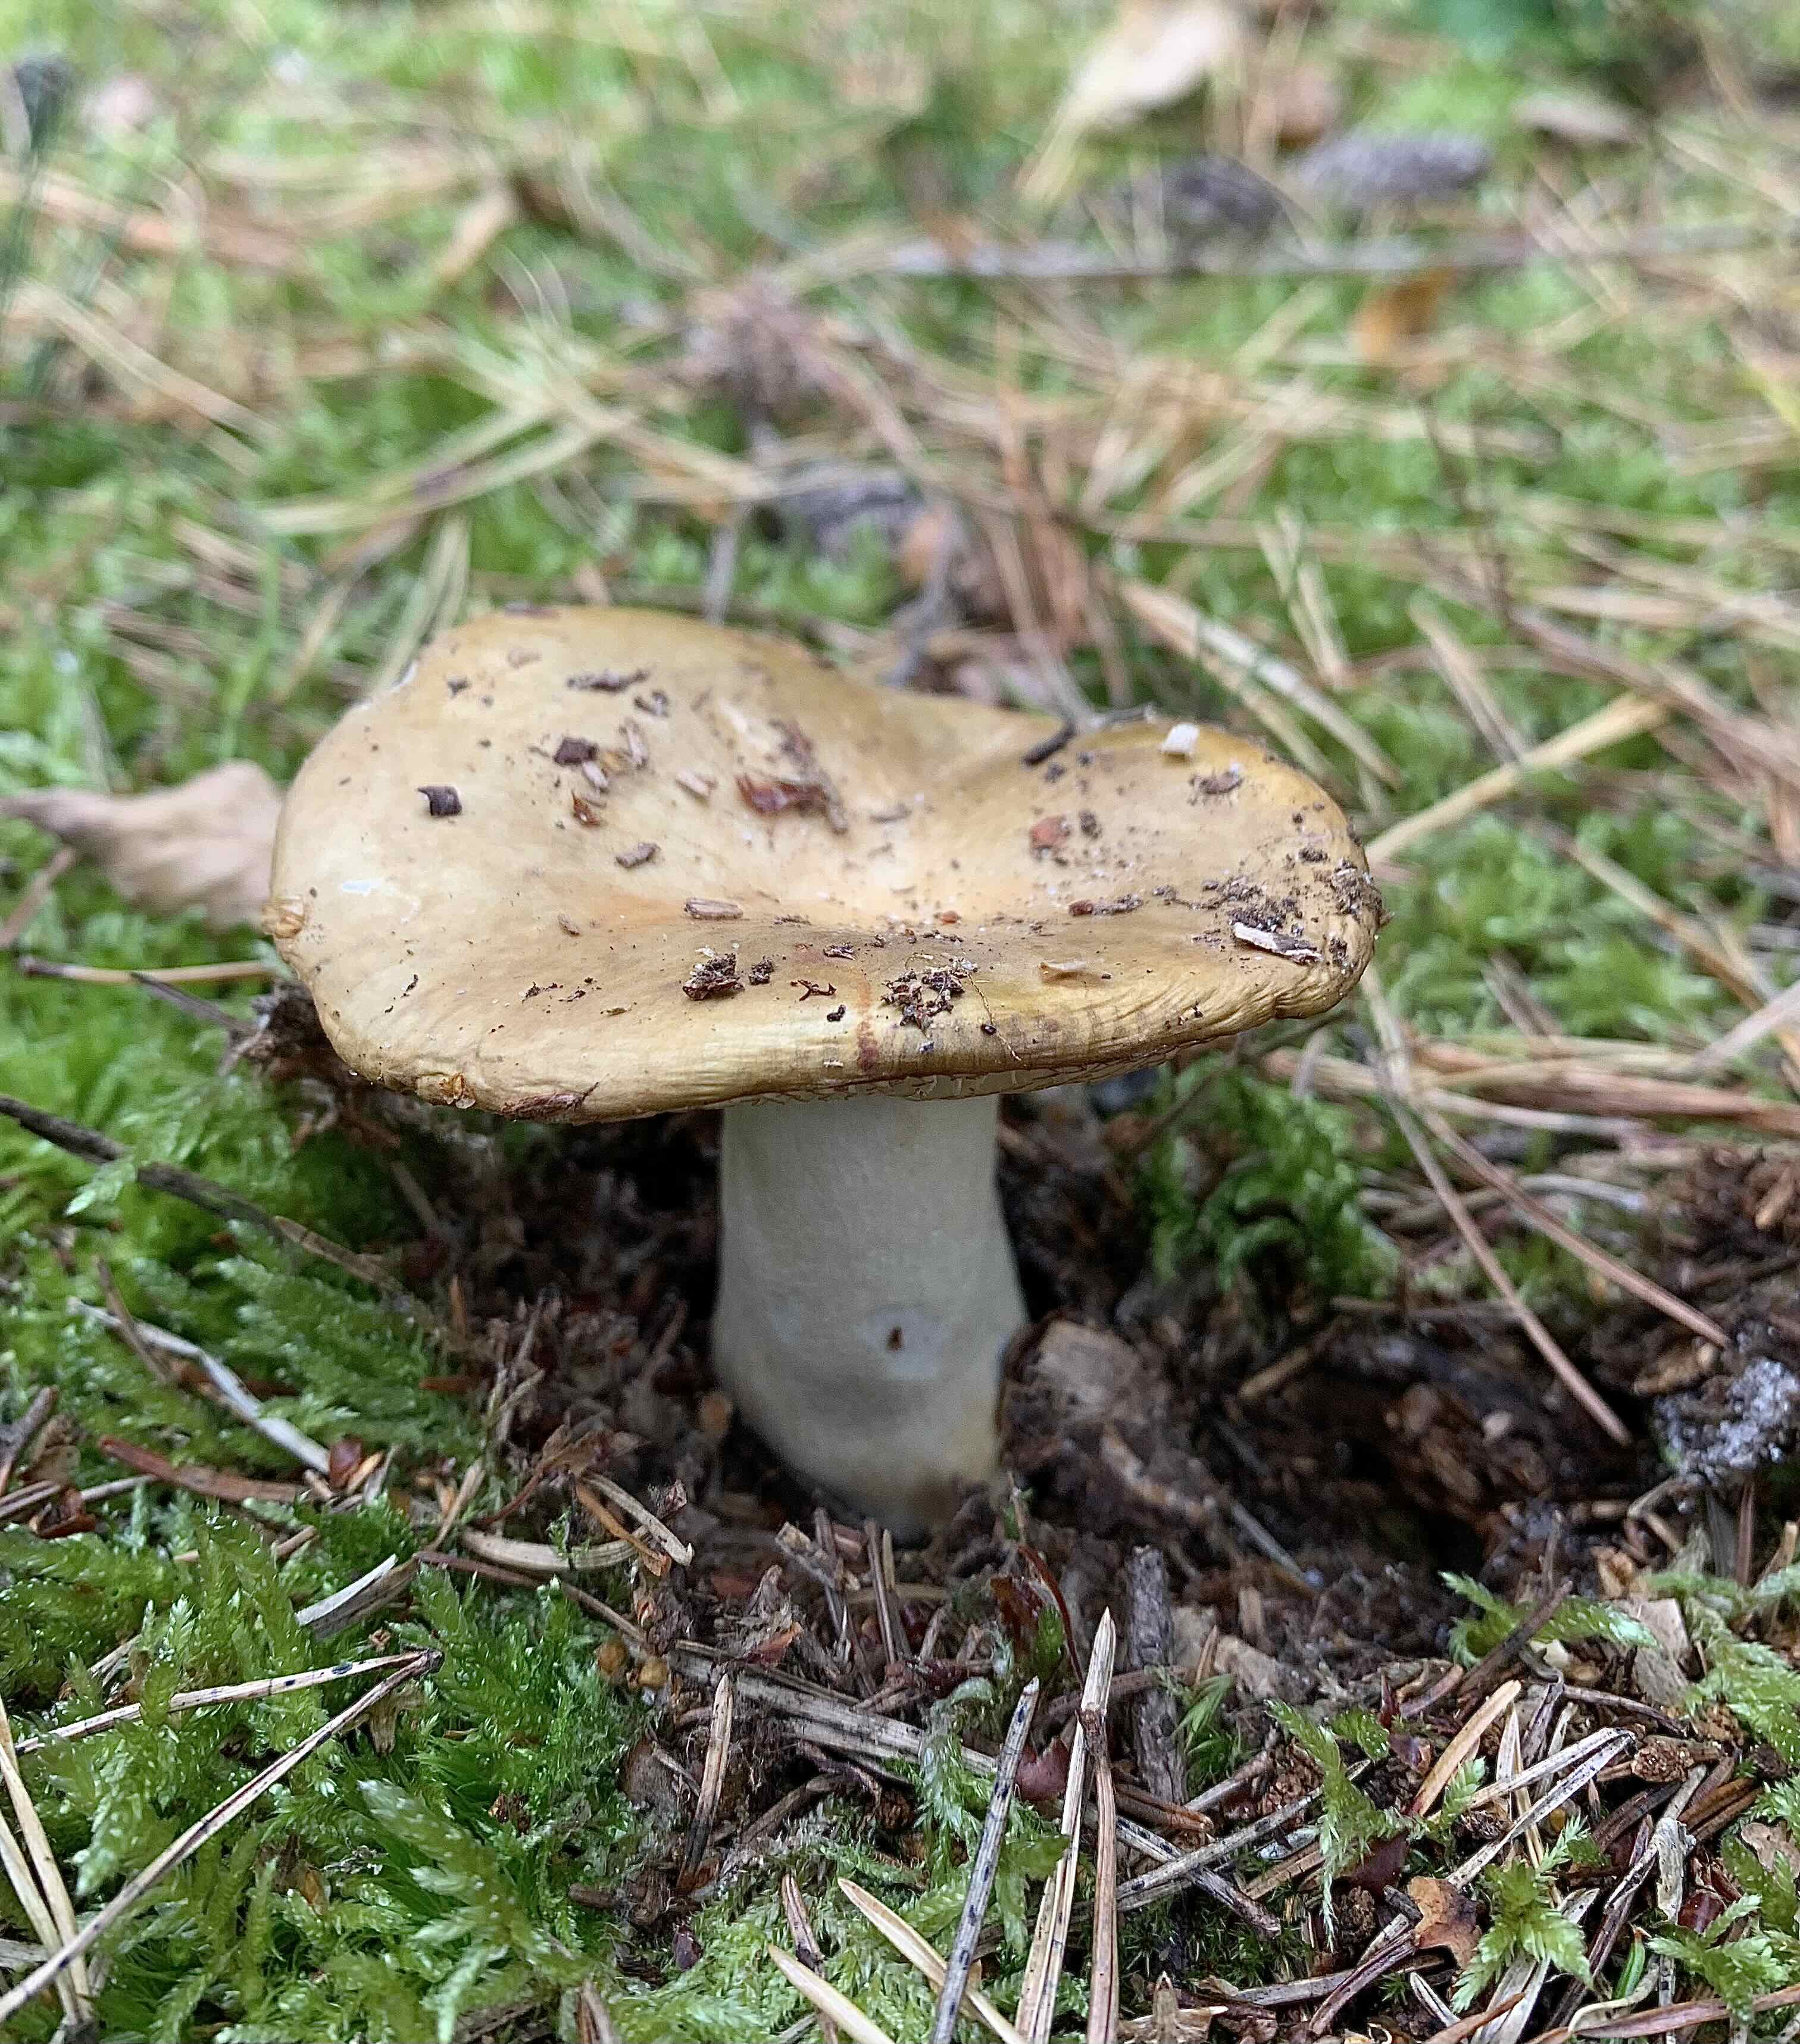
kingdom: Fungi
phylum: Basidiomycota
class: Agaricomycetes
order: Russulales
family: Russulaceae
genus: Russula
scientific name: Russula ochroleuca
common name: okkergul skørhat
